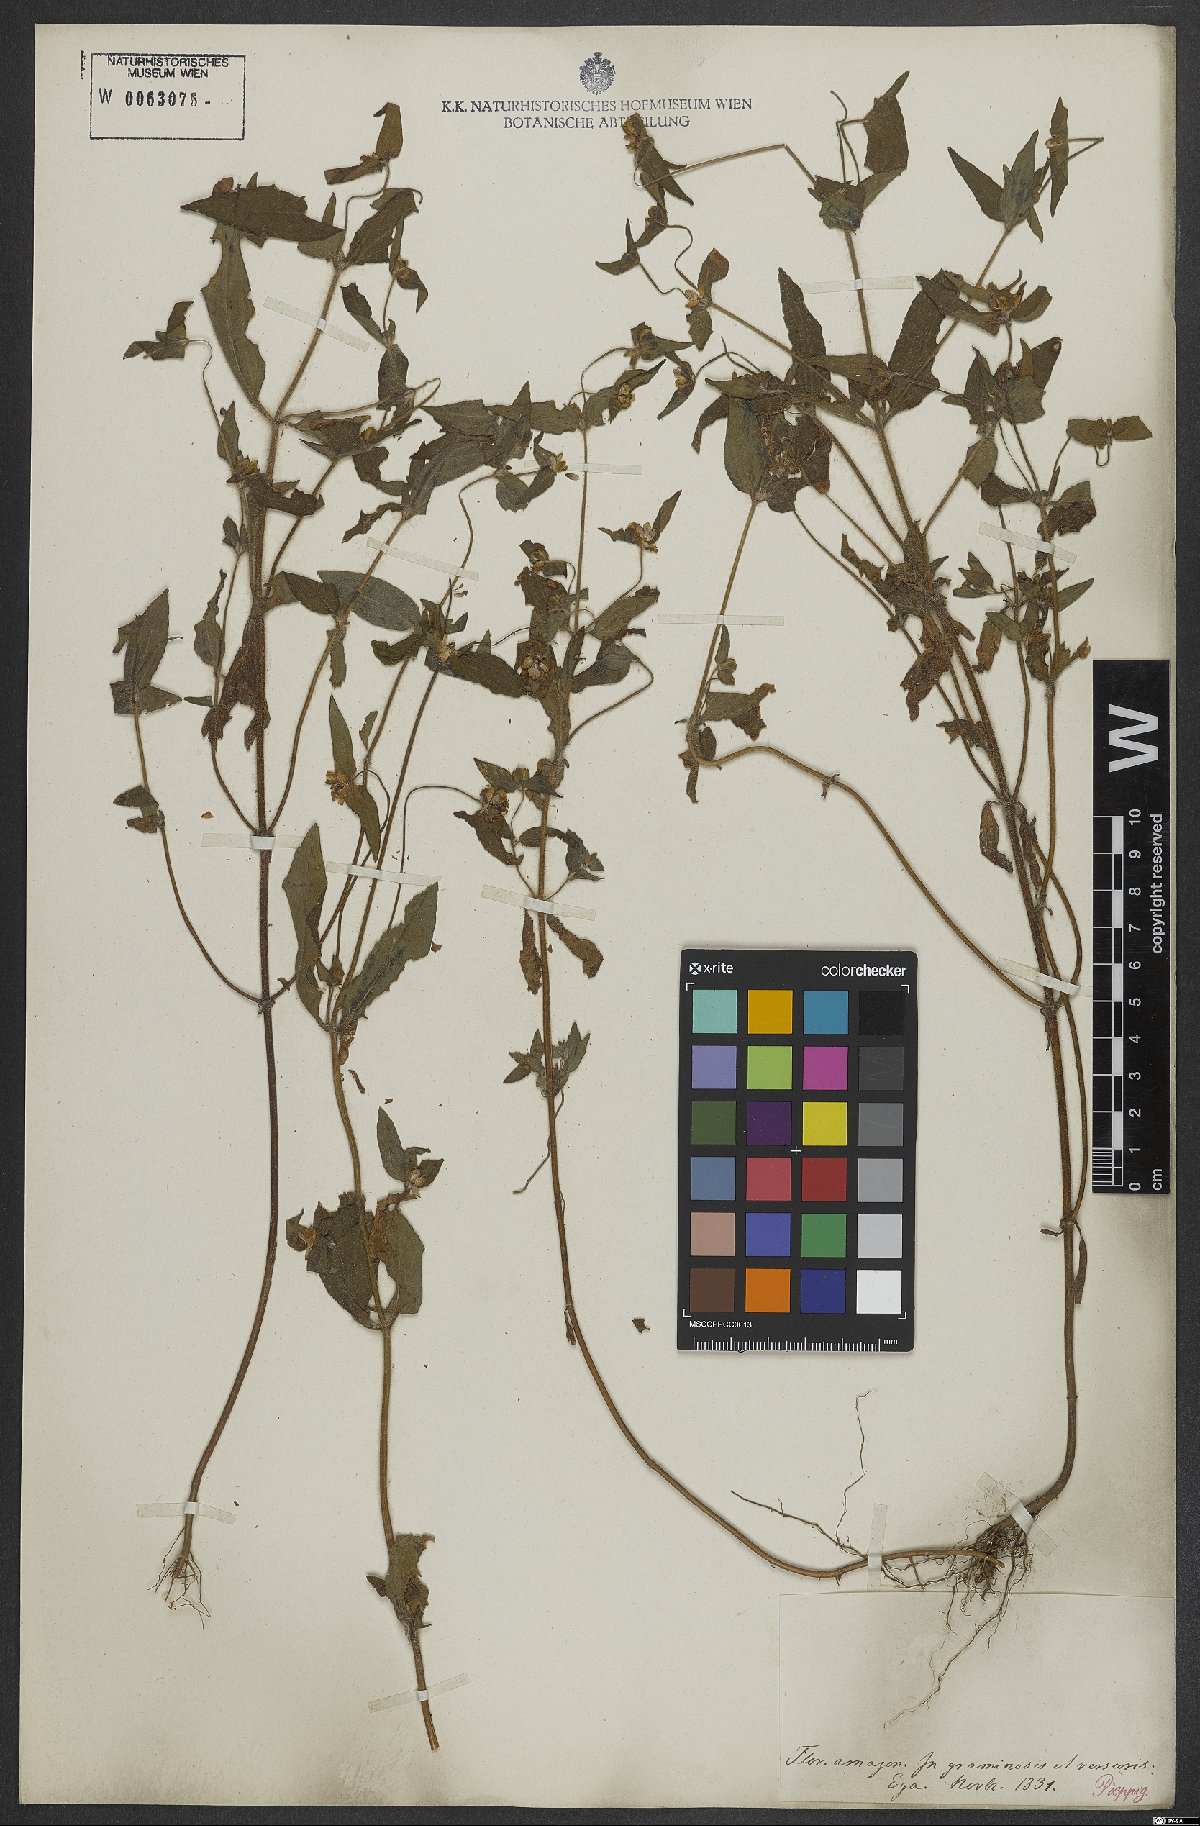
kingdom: Plantae
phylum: Tracheophyta
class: Magnoliopsida
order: Asterales
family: Asteraceae
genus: Eclipta
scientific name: Eclipta
